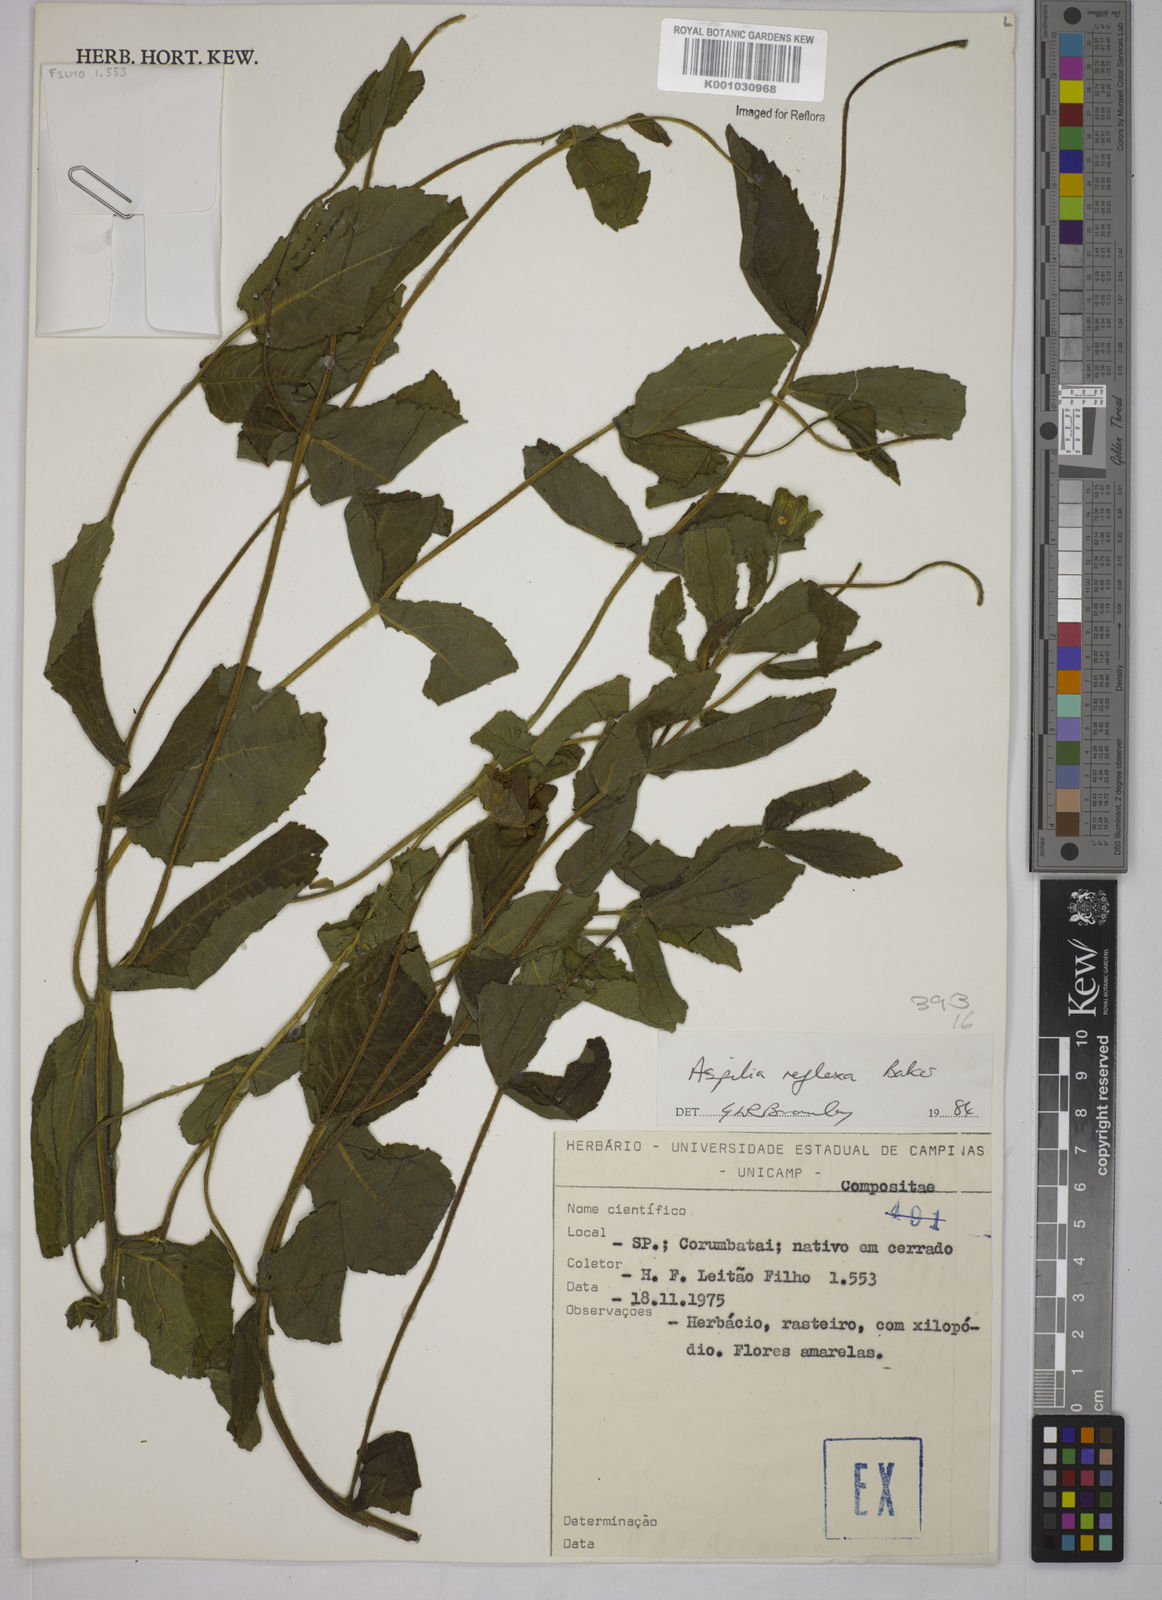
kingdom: Plantae
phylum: Tracheophyta
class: Magnoliopsida
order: Asterales
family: Asteraceae
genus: Wedelia
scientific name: Wedelia reflexa
